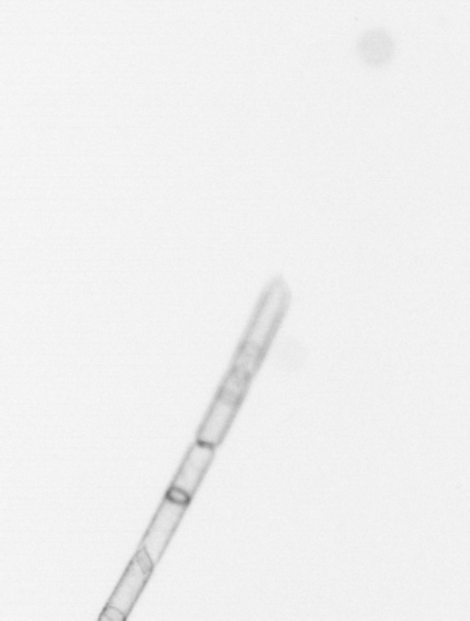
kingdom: Chromista
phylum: Ochrophyta
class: Bacillariophyceae
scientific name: Bacillariophyceae
